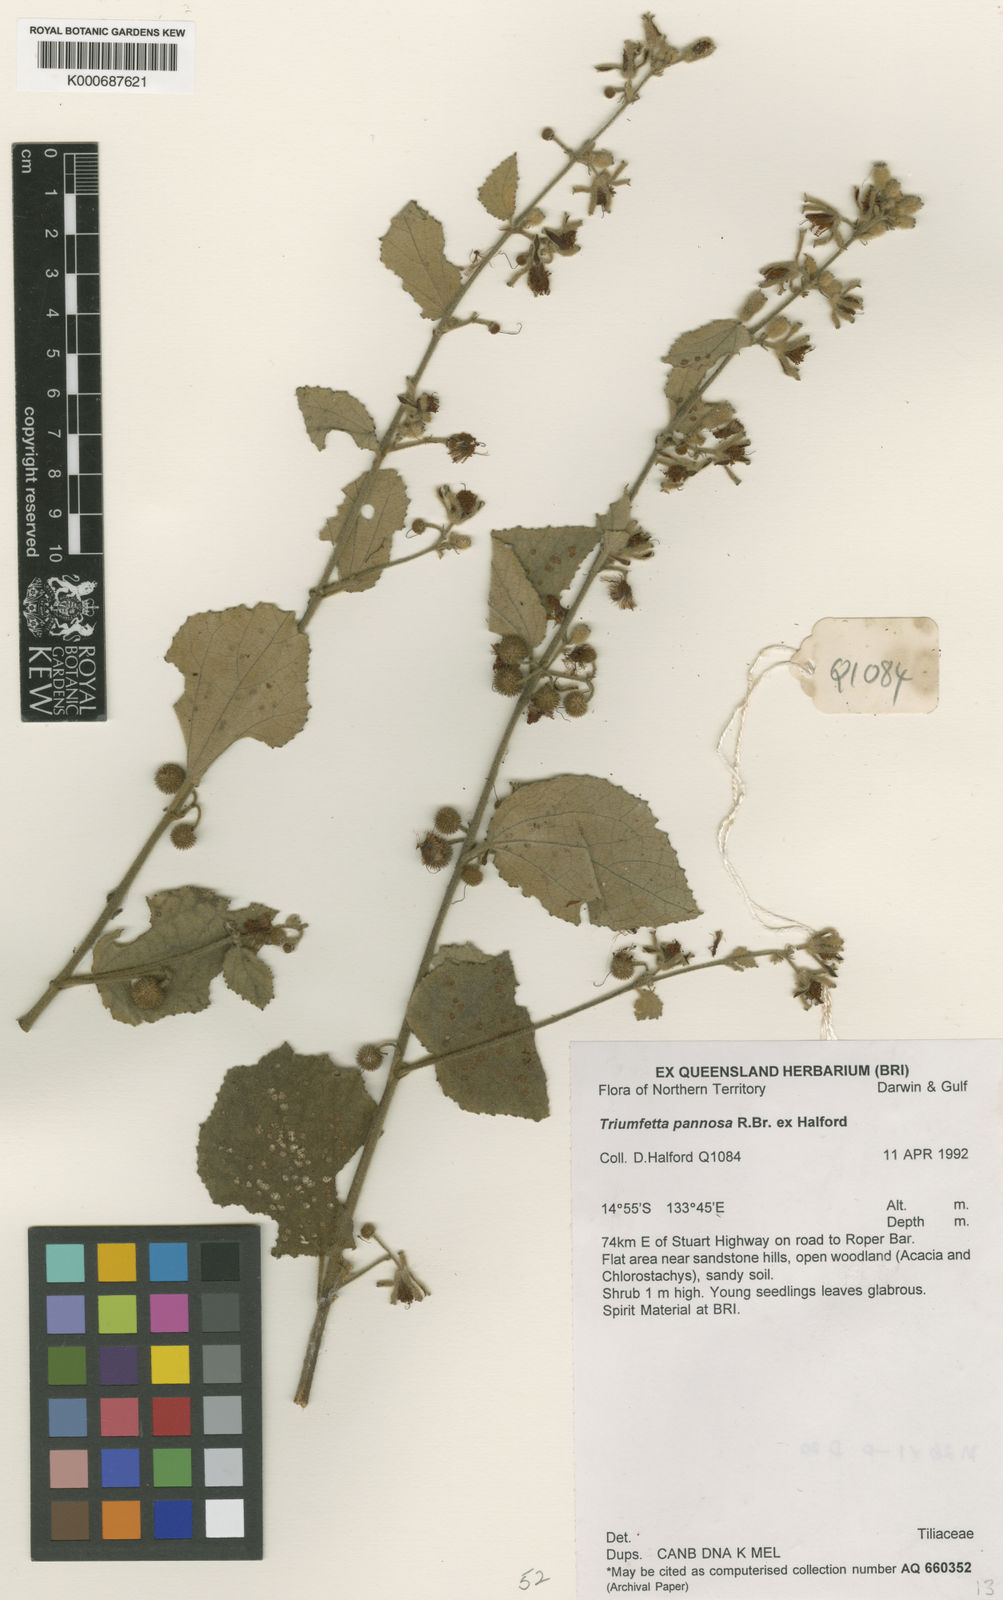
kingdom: Plantae
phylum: Tracheophyta
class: Magnoliopsida
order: Malvales
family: Malvaceae
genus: Triumfetta
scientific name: Triumfetta pannosa
